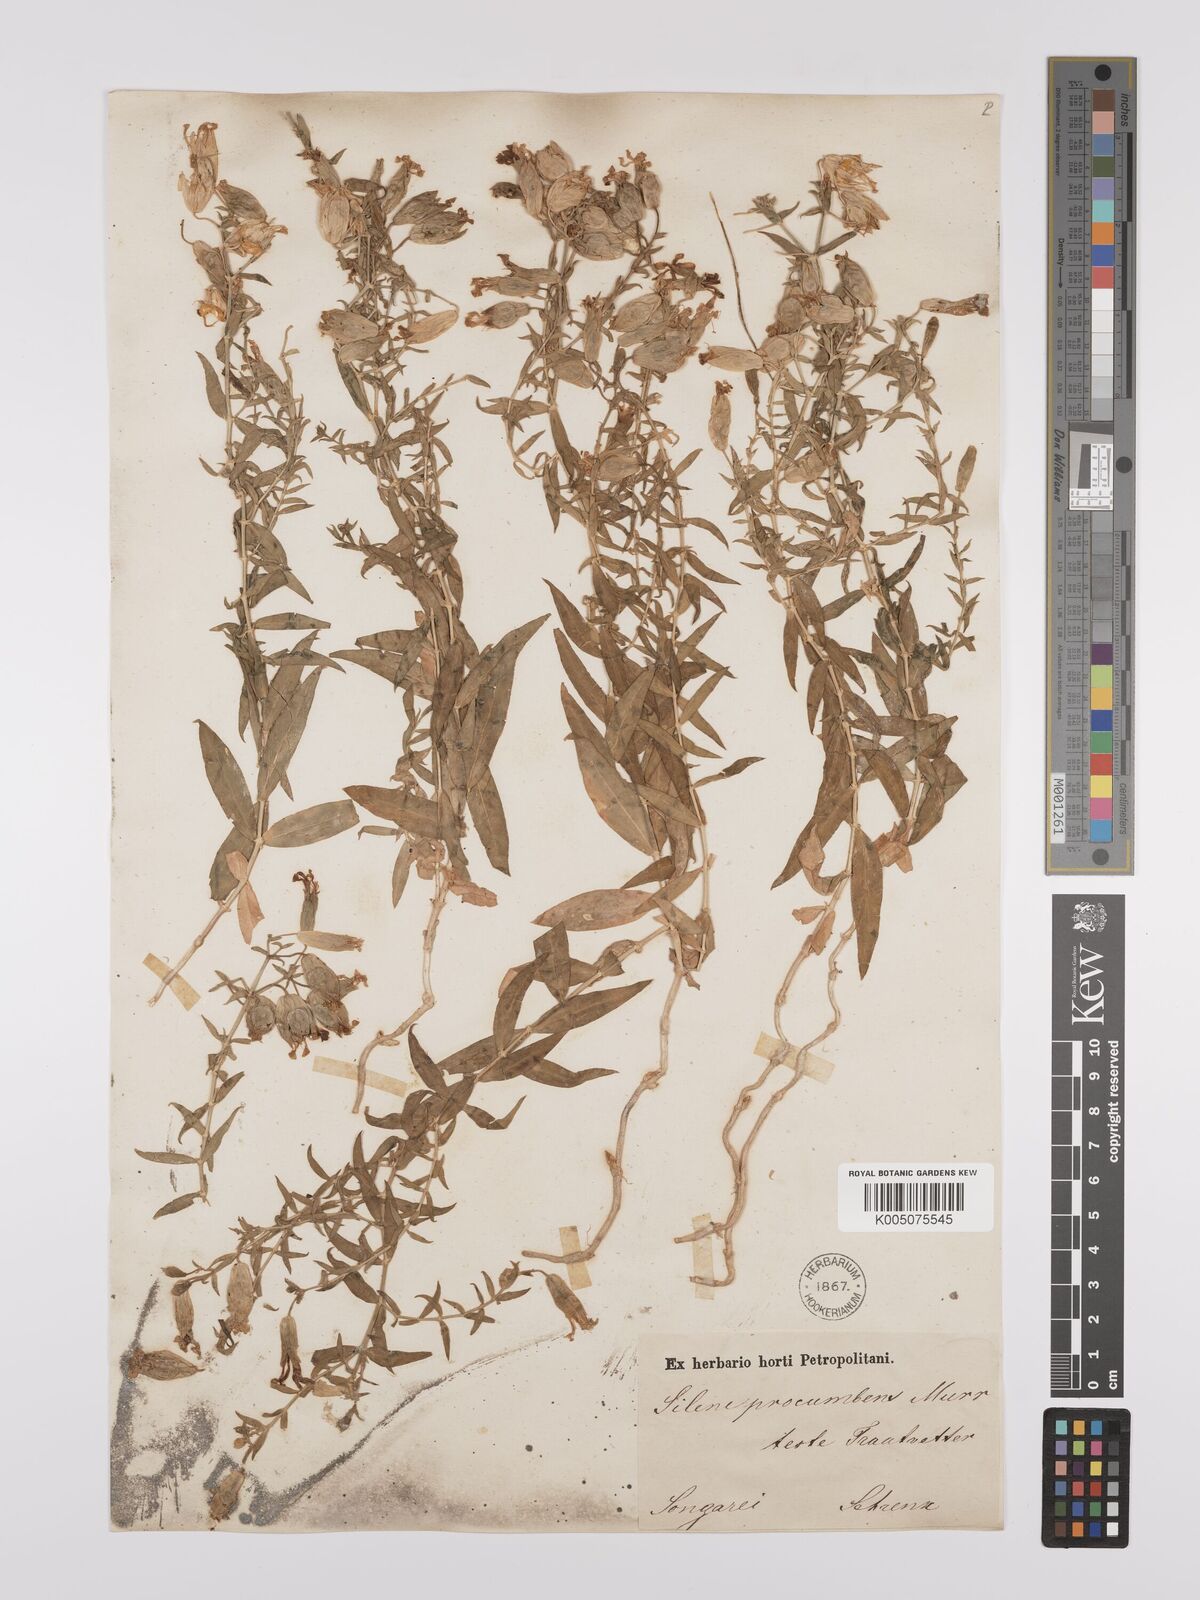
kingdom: Plantae
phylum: Tracheophyta
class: Magnoliopsida
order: Caryophyllales
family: Caryophyllaceae
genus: Silene
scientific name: Silene
